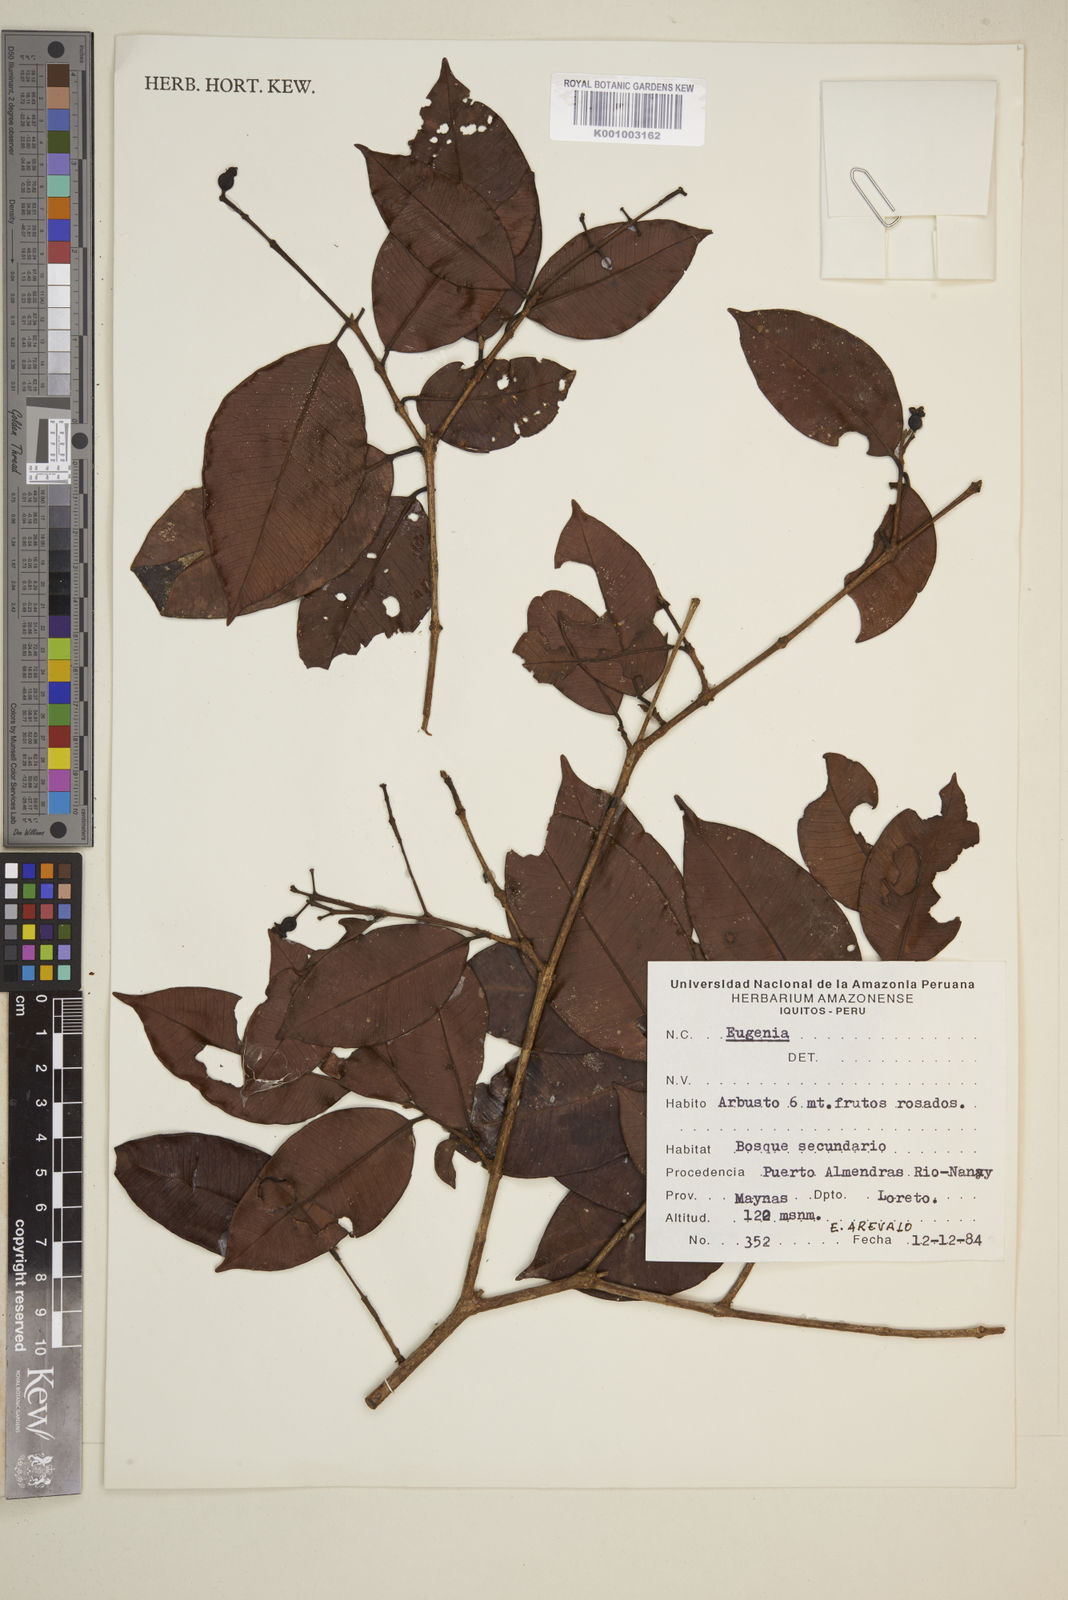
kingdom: Plantae
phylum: Tracheophyta
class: Magnoliopsida
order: Myrtales
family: Myrtaceae
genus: Eugenia
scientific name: Eugenia
